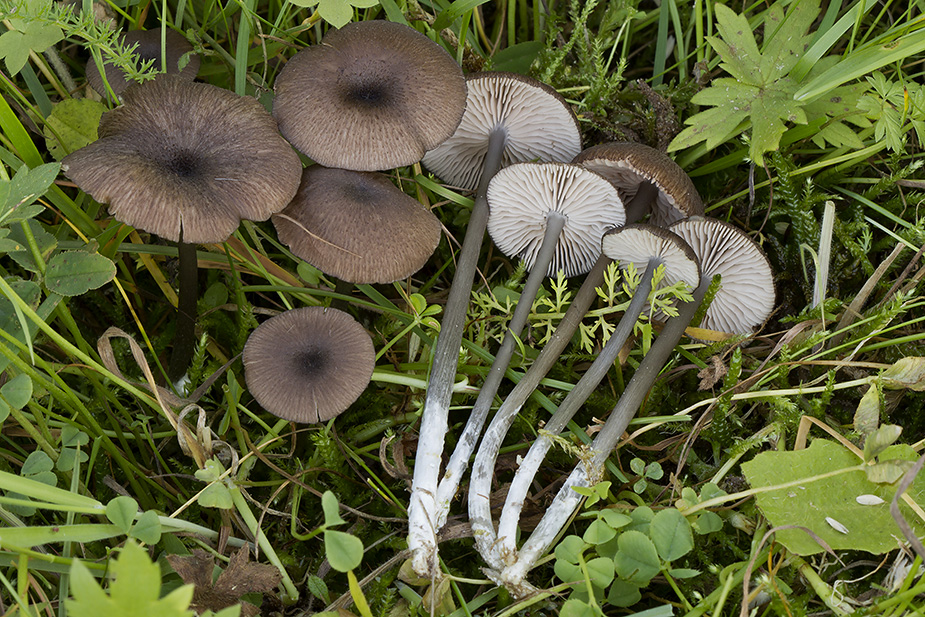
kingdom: Fungi
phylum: Basidiomycota
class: Agaricomycetes
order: Agaricales
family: Entolomataceae
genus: Entoloma
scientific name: Entoloma porphyrogriseum
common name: porfyrgrå rødblad
